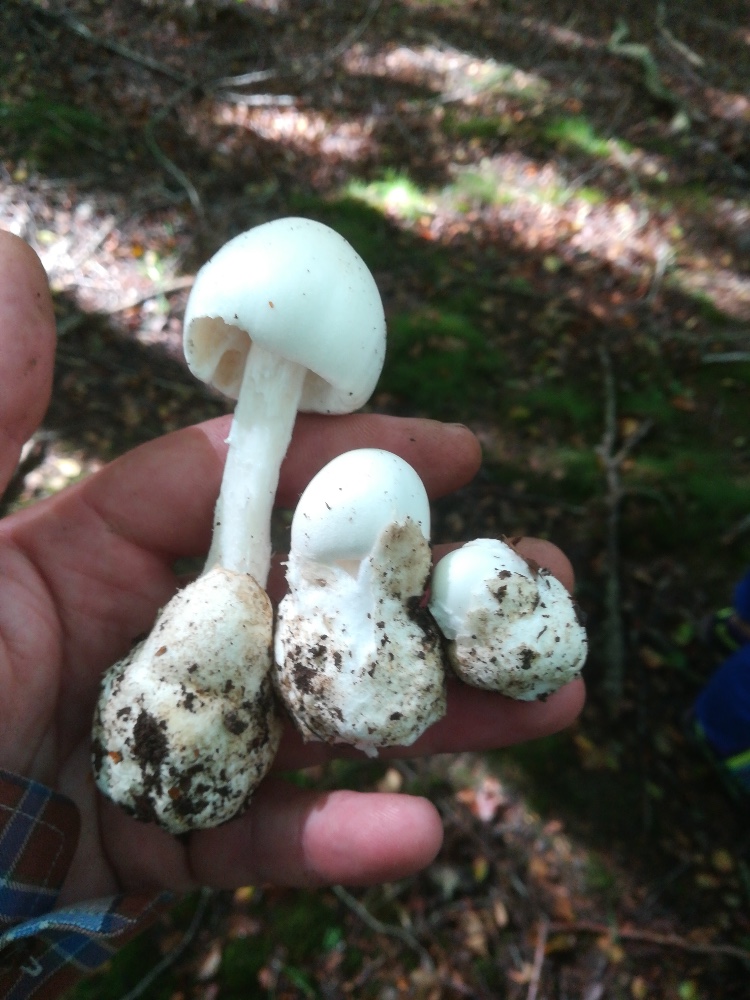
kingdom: Fungi
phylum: Basidiomycota
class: Agaricomycetes
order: Agaricales
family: Amanitaceae
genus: Amanita
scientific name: Amanita virosa
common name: snehvid fluesvamp
